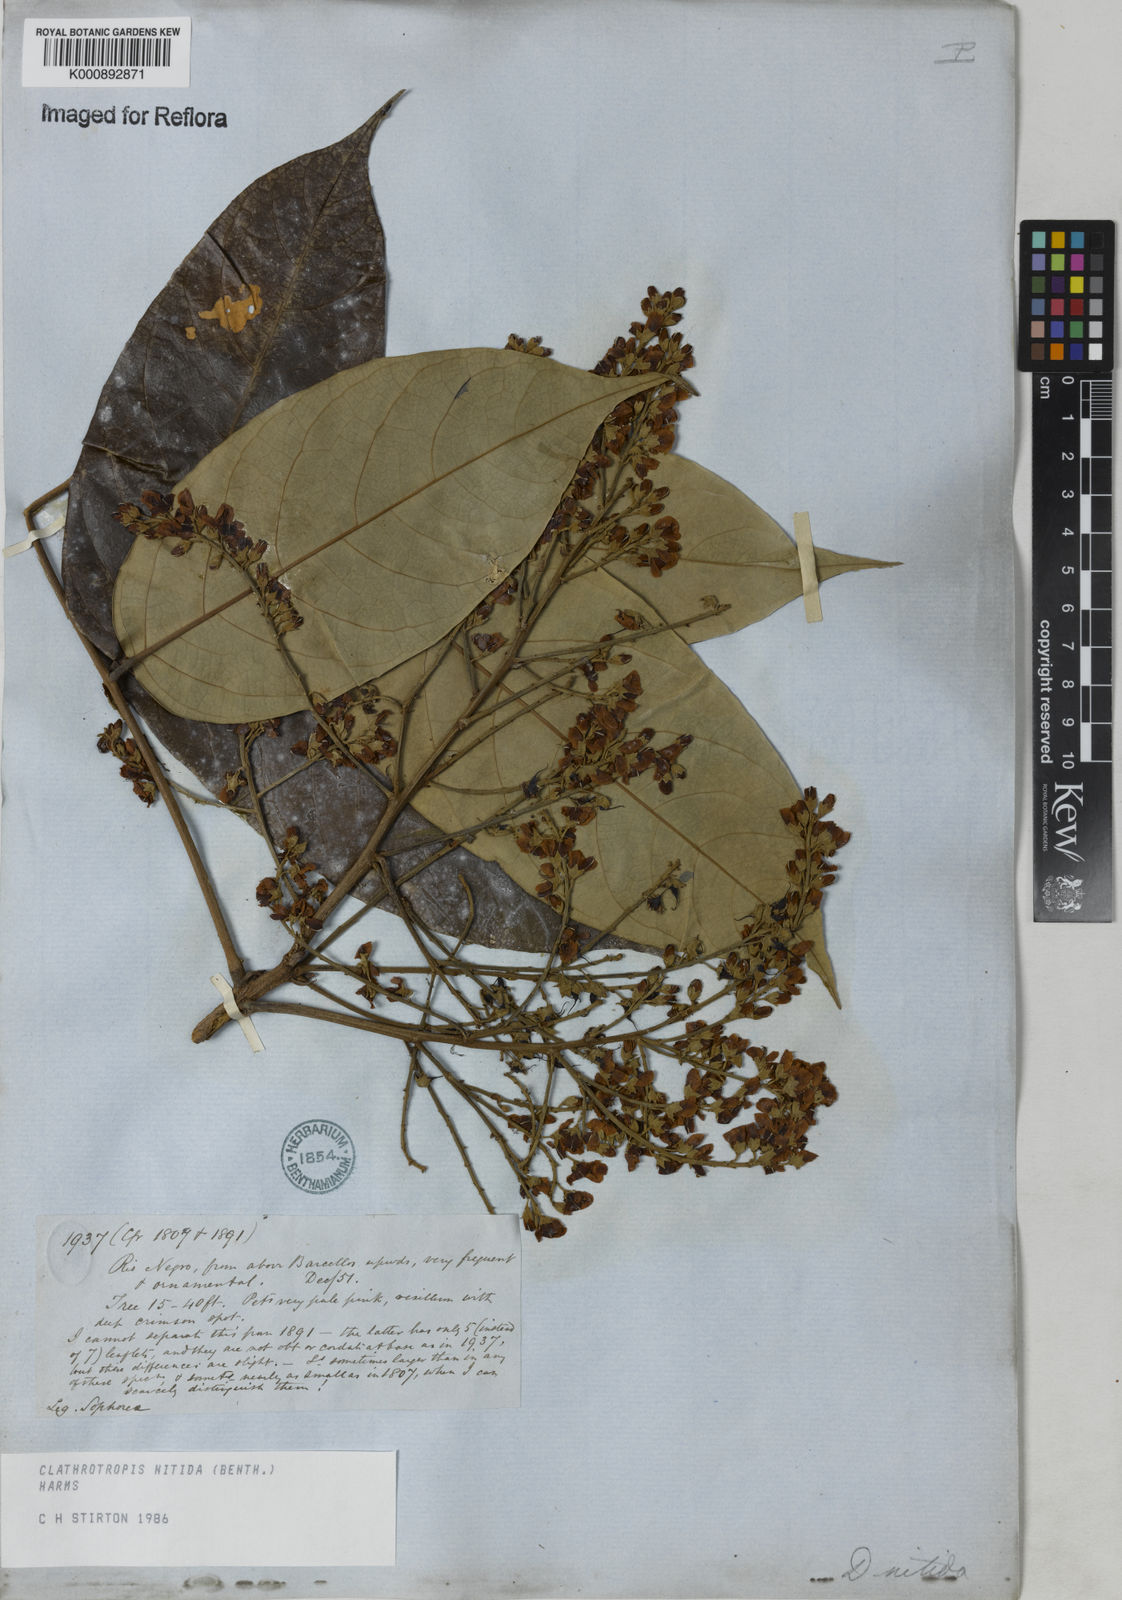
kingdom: Plantae
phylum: Tracheophyta
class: Magnoliopsida
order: Fabales
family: Fabaceae
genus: Clathrotropis
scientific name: Clathrotropis nitida
